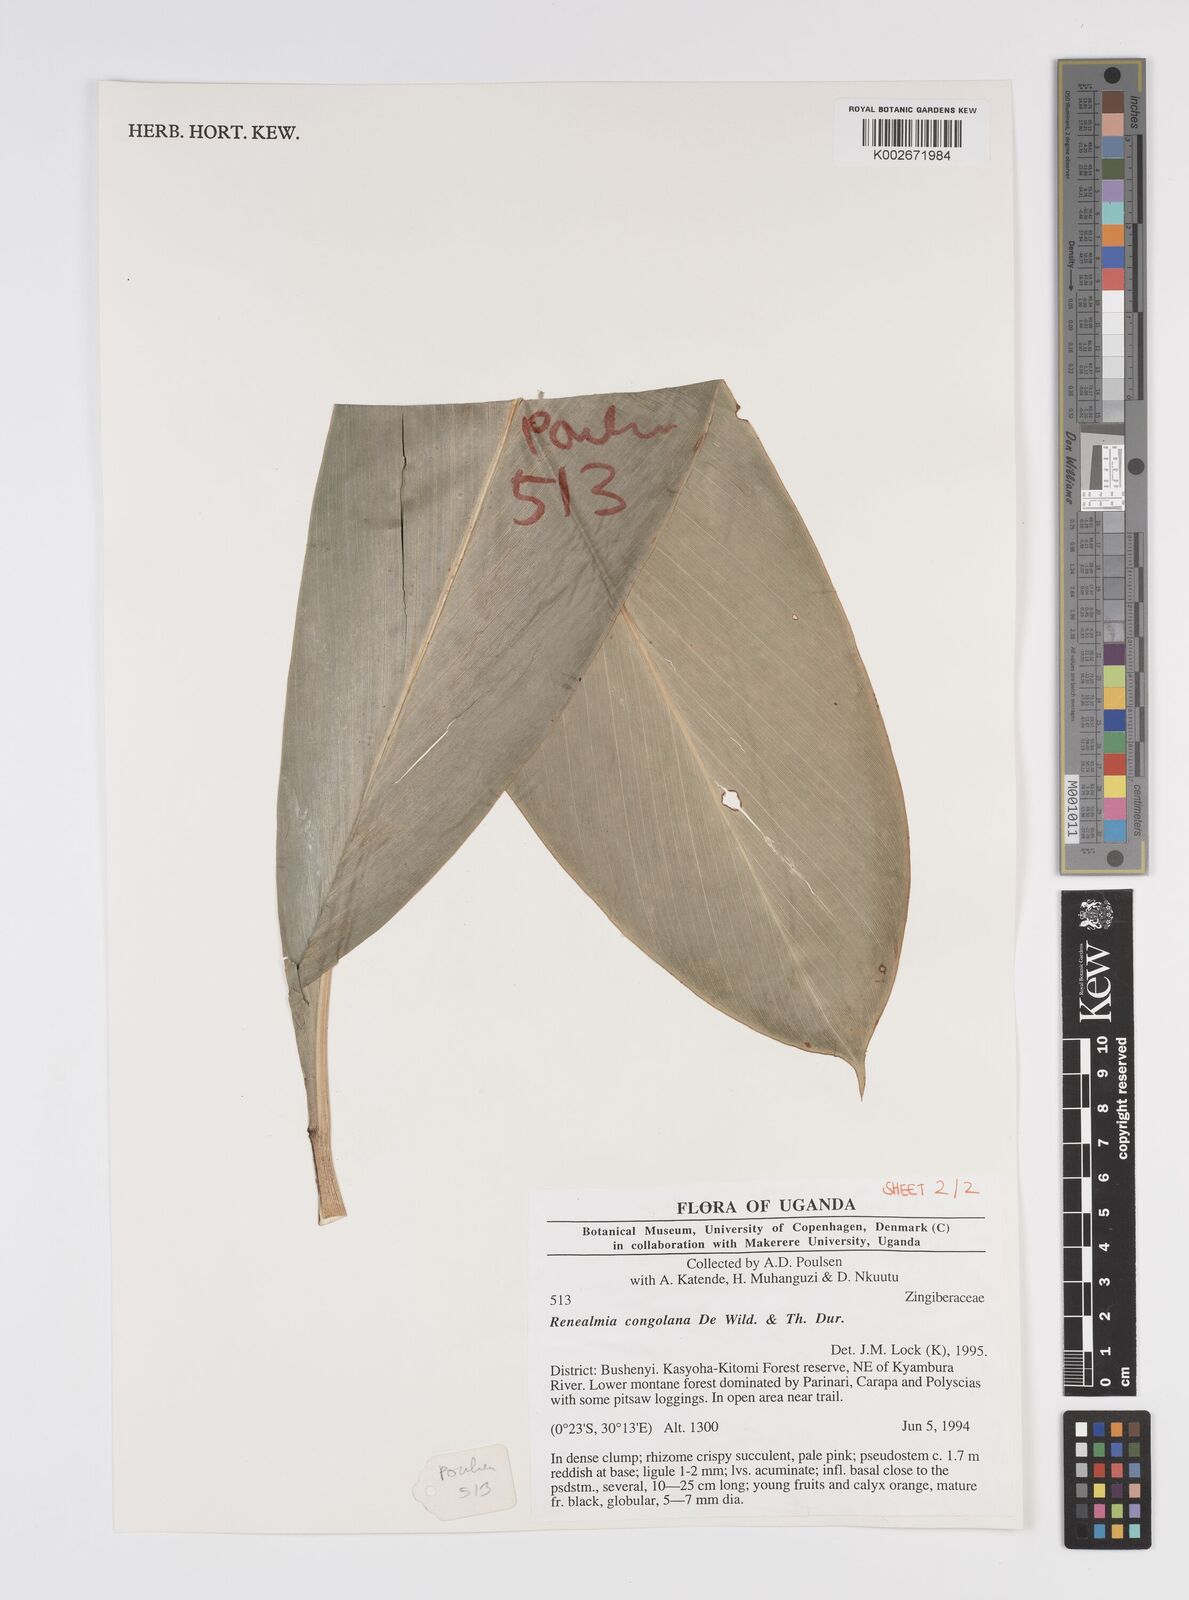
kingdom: Plantae
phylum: Tracheophyta
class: Liliopsida
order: Zingiberales
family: Zingiberaceae
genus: Renealmia
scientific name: Renealmia congolana
